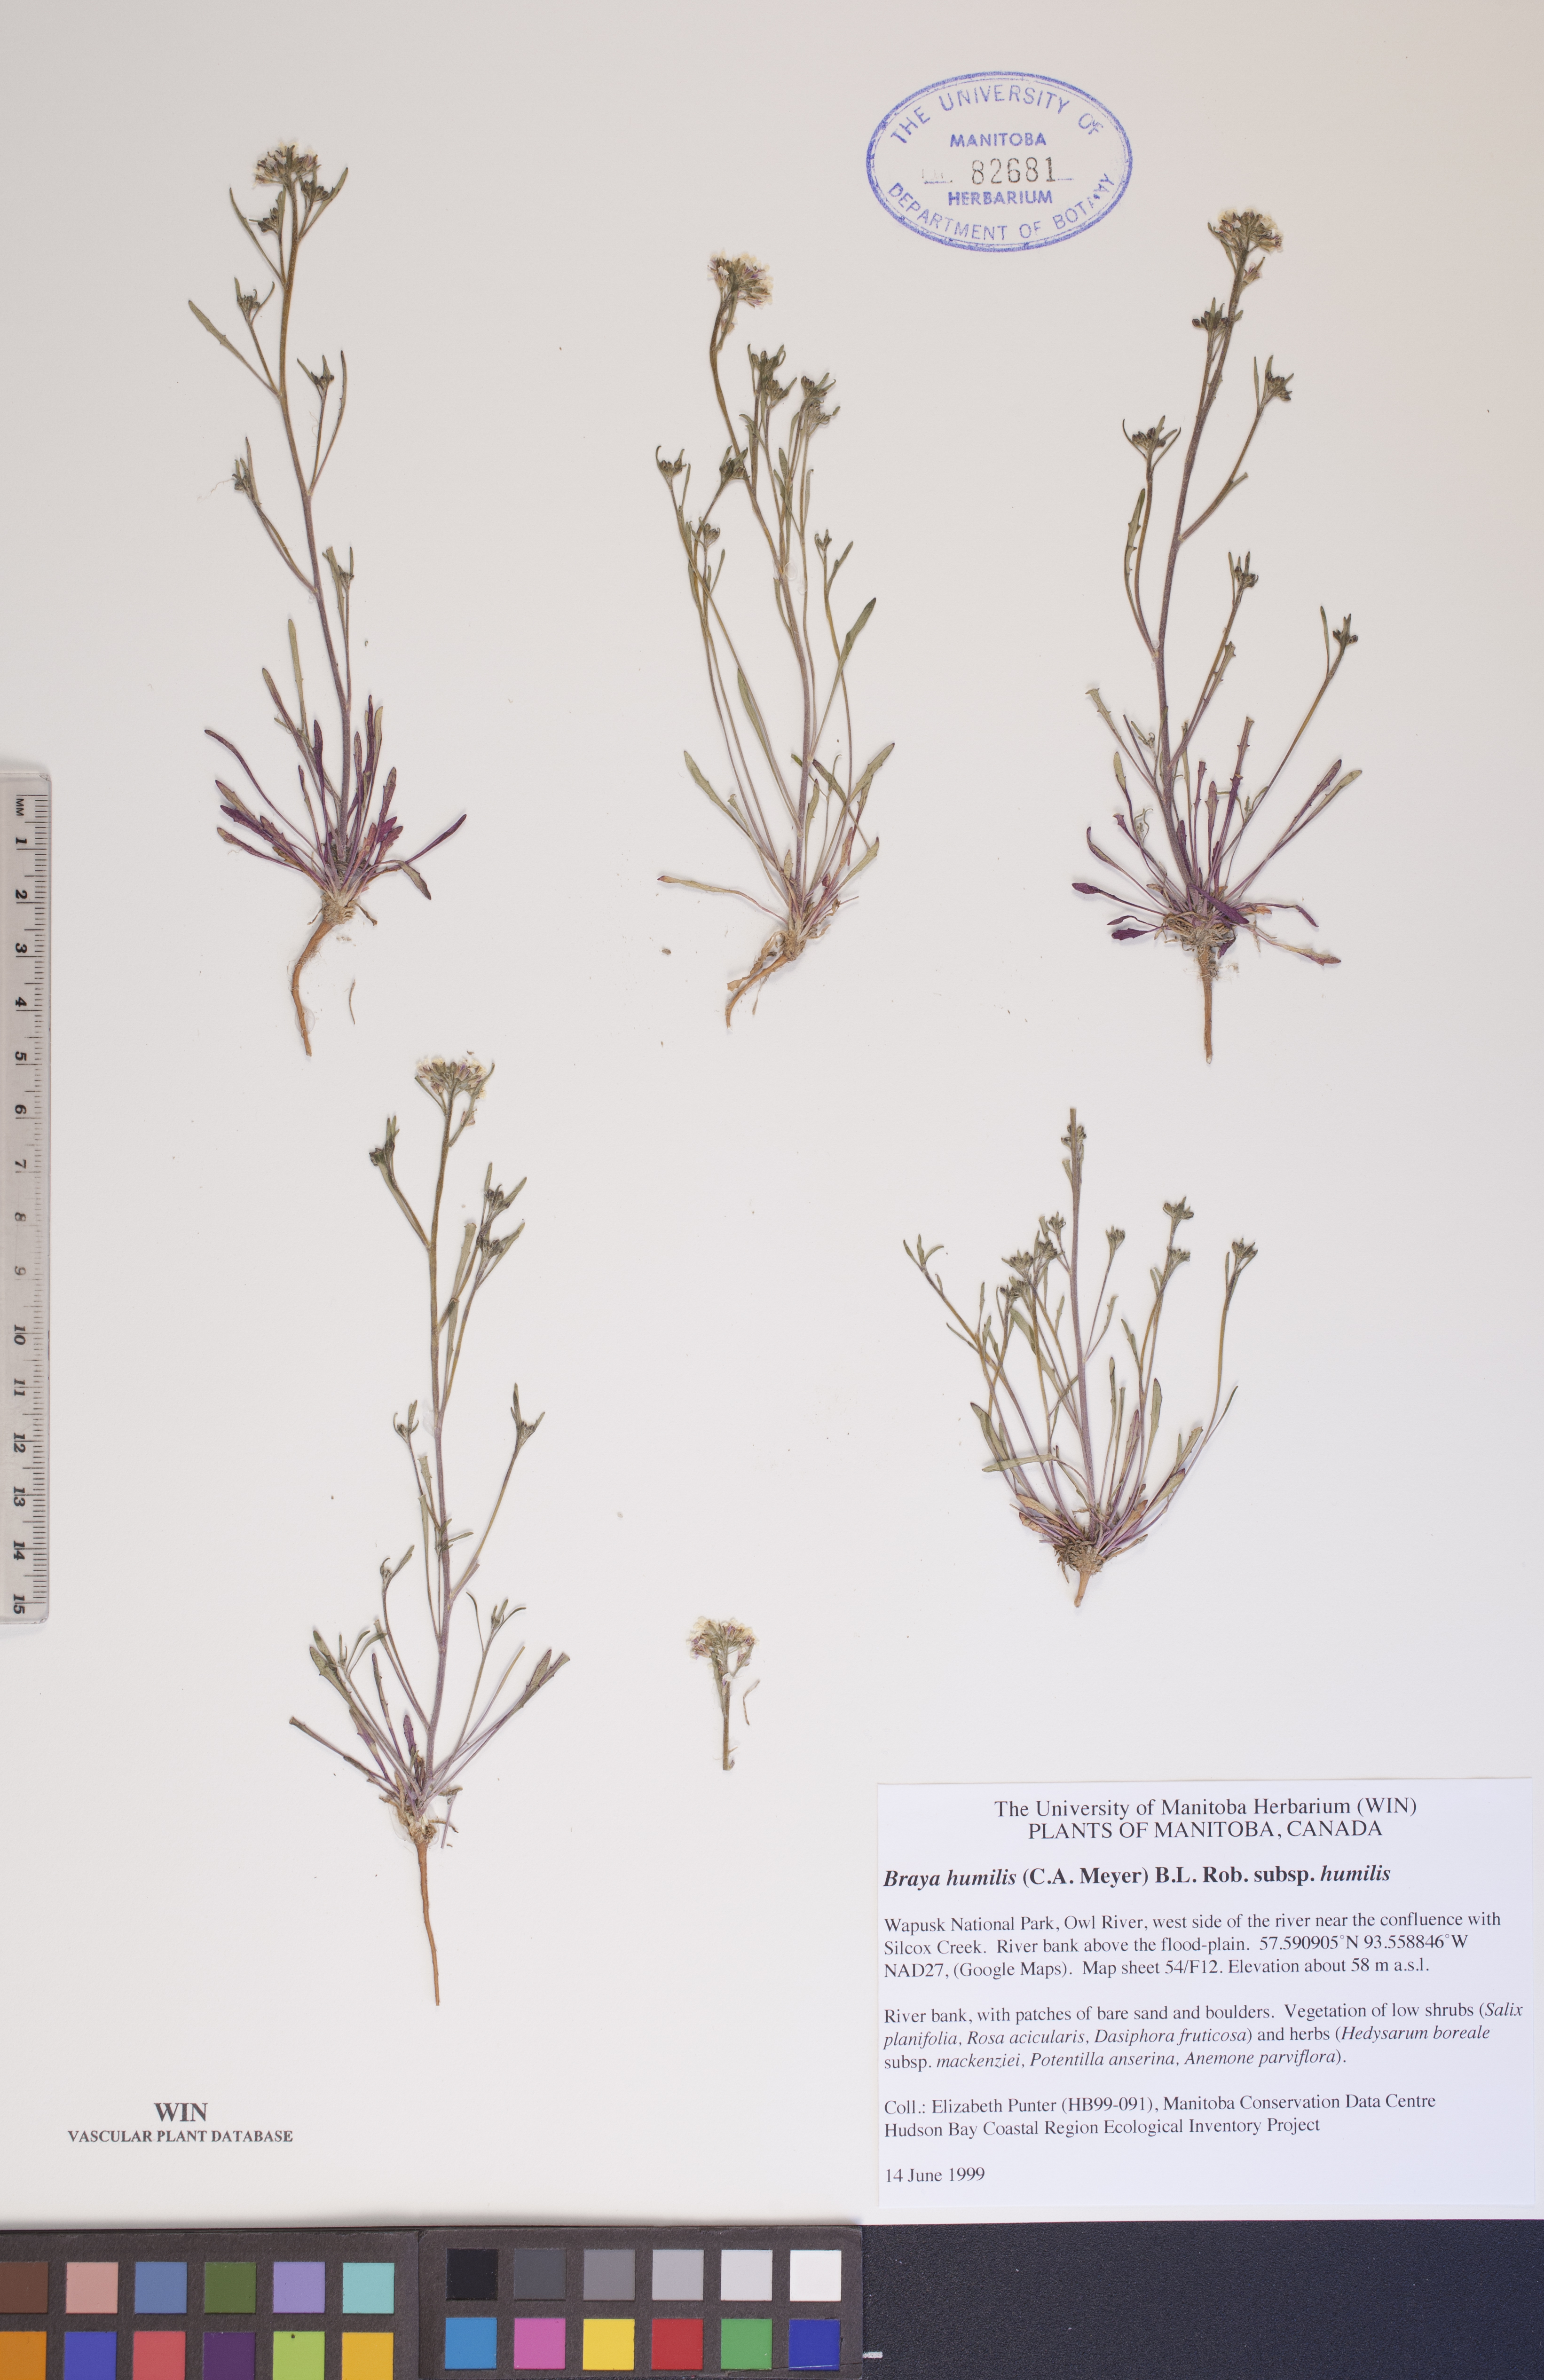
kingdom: Plantae
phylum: Tracheophyta
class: Magnoliopsida
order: Brassicales
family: Brassicaceae
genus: Braya
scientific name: Braya humilis
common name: Alpine northern rockcress
